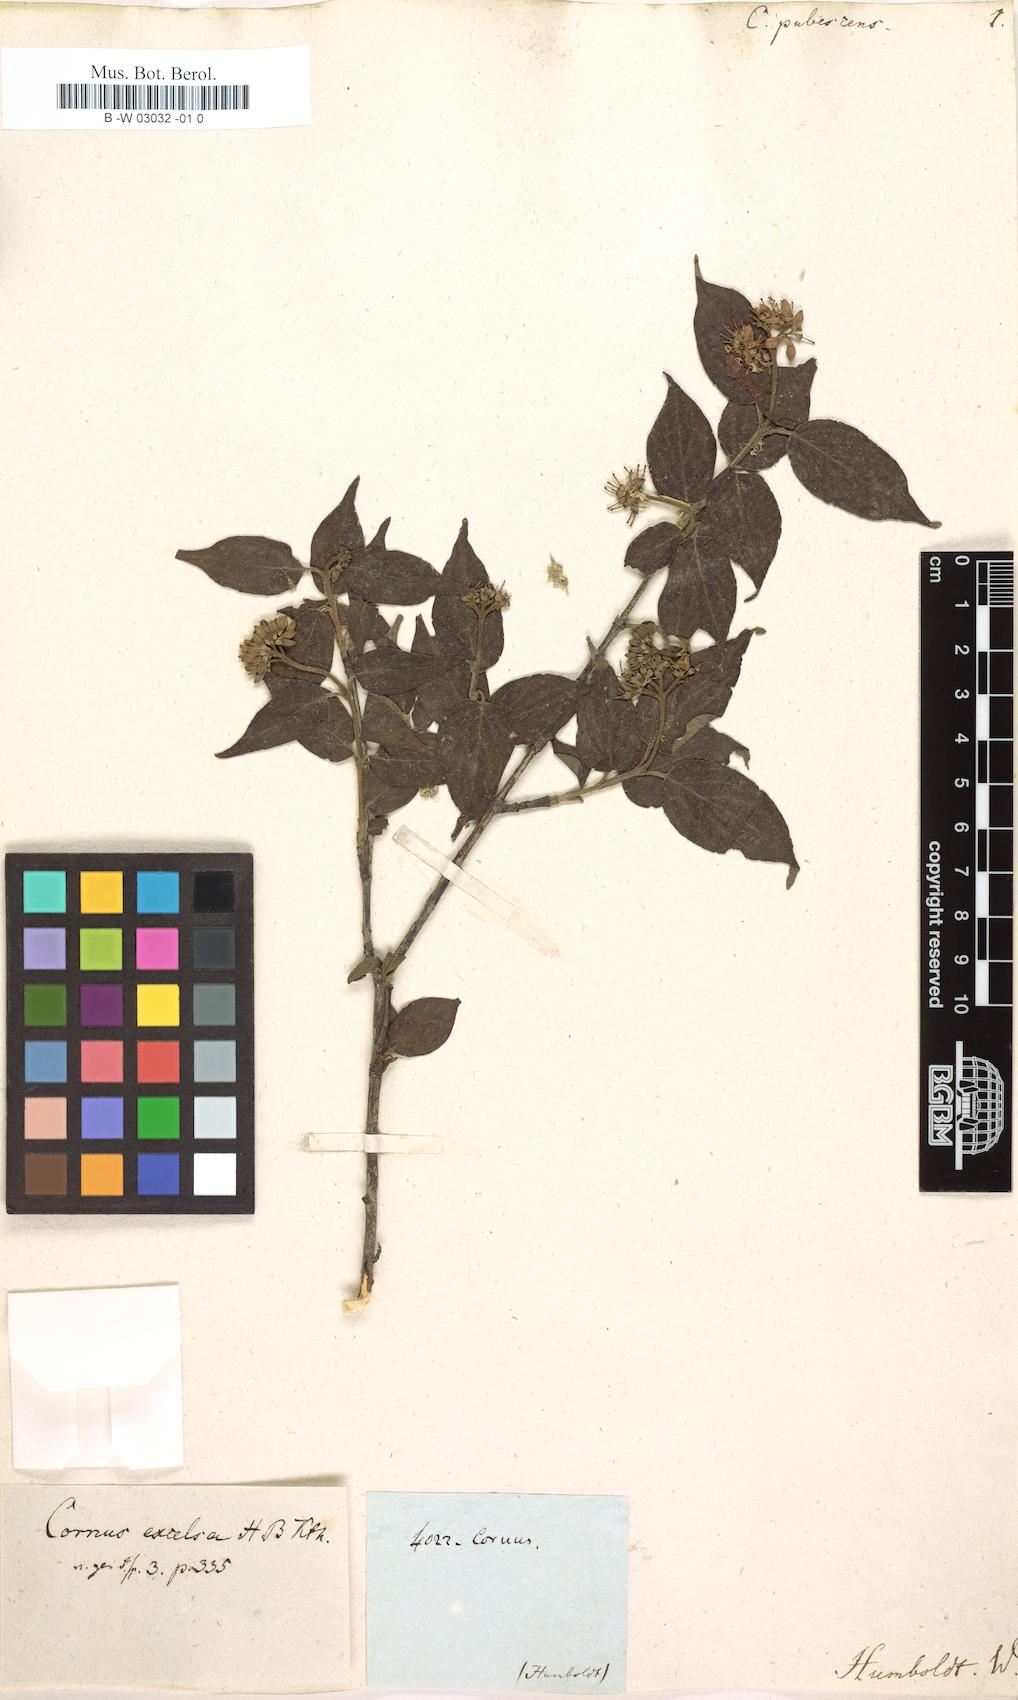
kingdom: Plantae
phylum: Tracheophyta
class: Magnoliopsida
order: Cornales
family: Cornaceae
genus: Cornus
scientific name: Cornus
